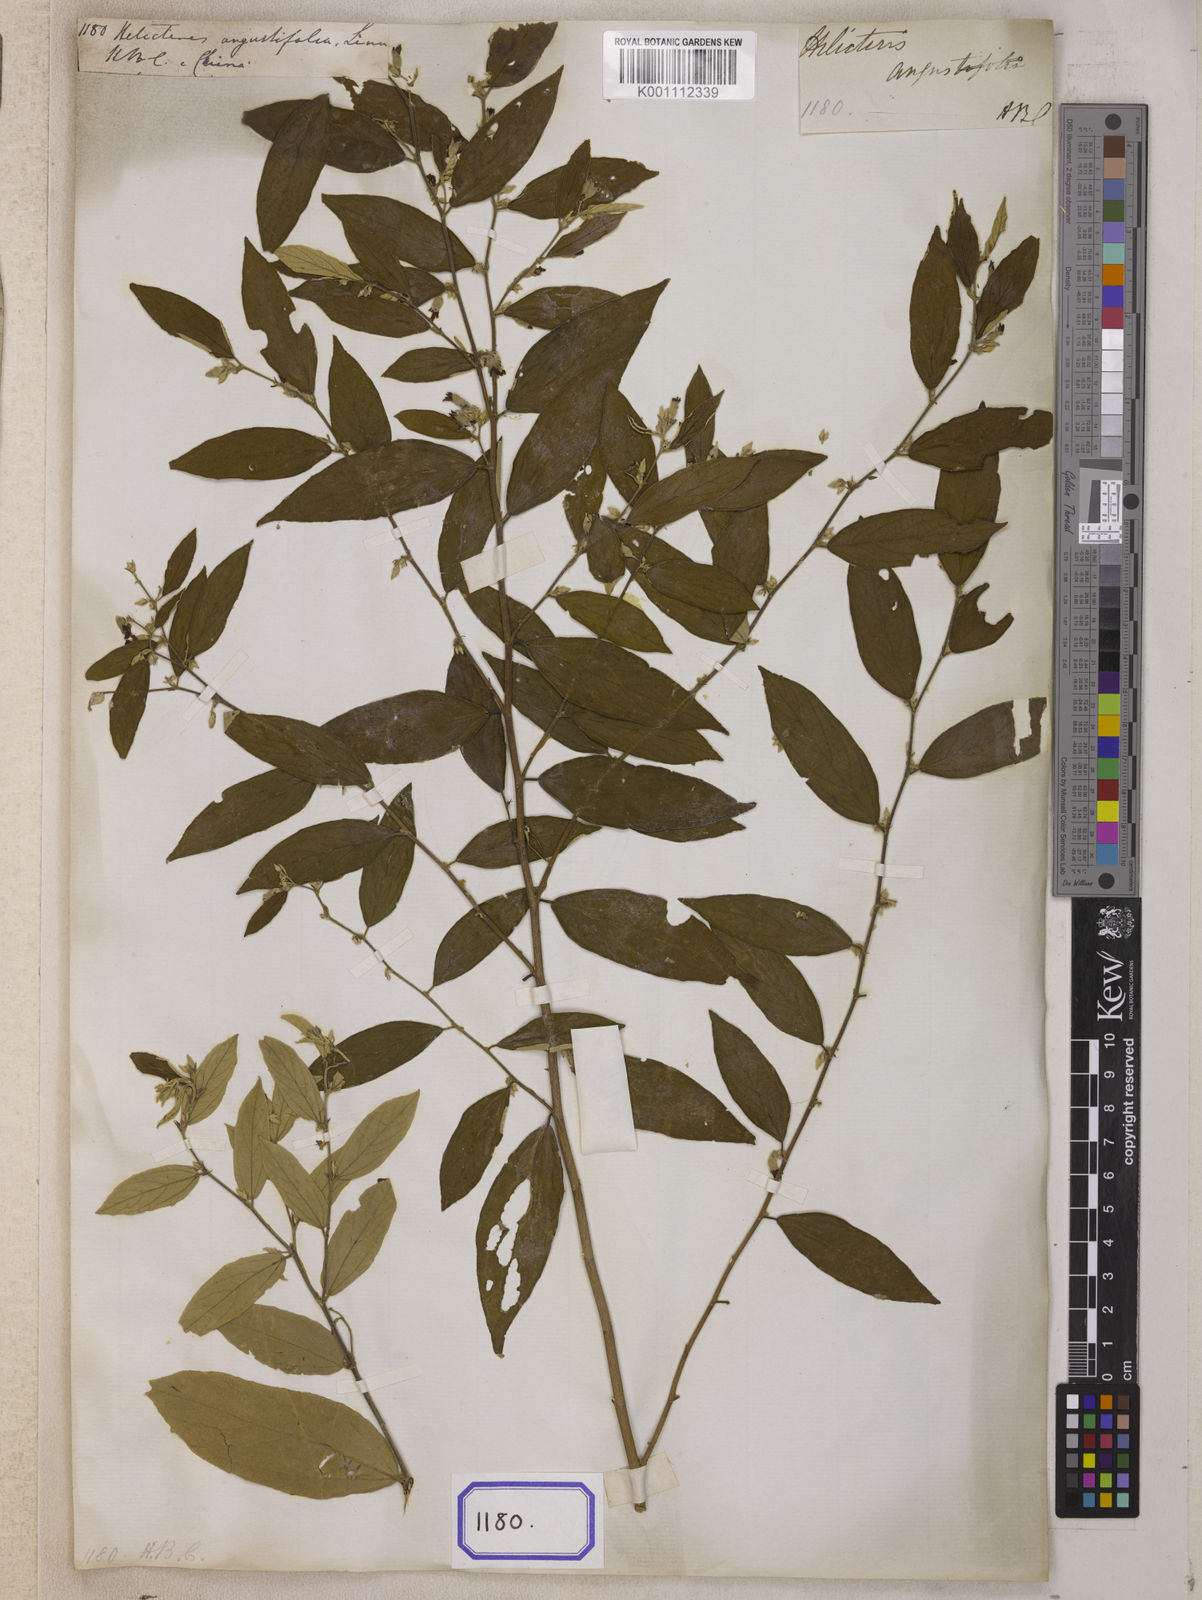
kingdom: Plantae
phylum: Tracheophyta
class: Magnoliopsida
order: Malvales
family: Malvaceae
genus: Helicteres
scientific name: Helicteres angustifolia
